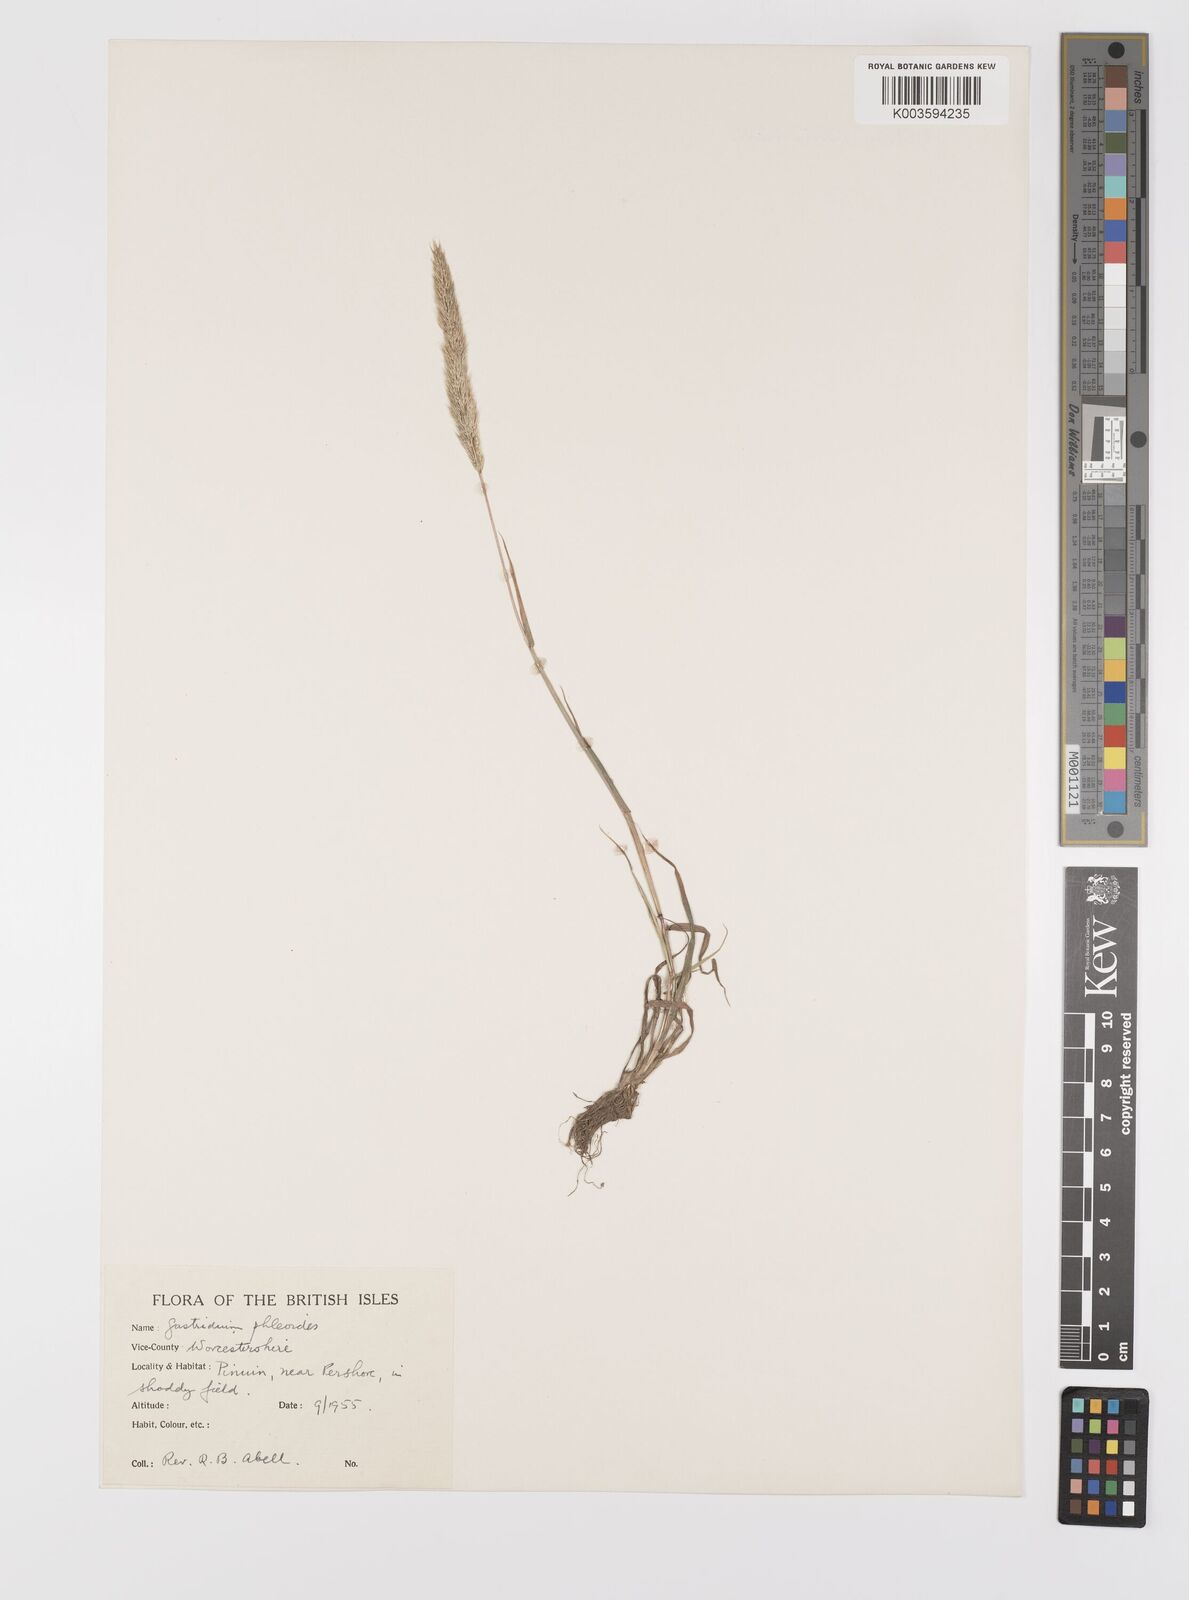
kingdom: Plantae
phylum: Tracheophyta
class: Liliopsida
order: Poales
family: Poaceae
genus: Gastridium
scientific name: Gastridium ventricosum
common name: Nit-grass
